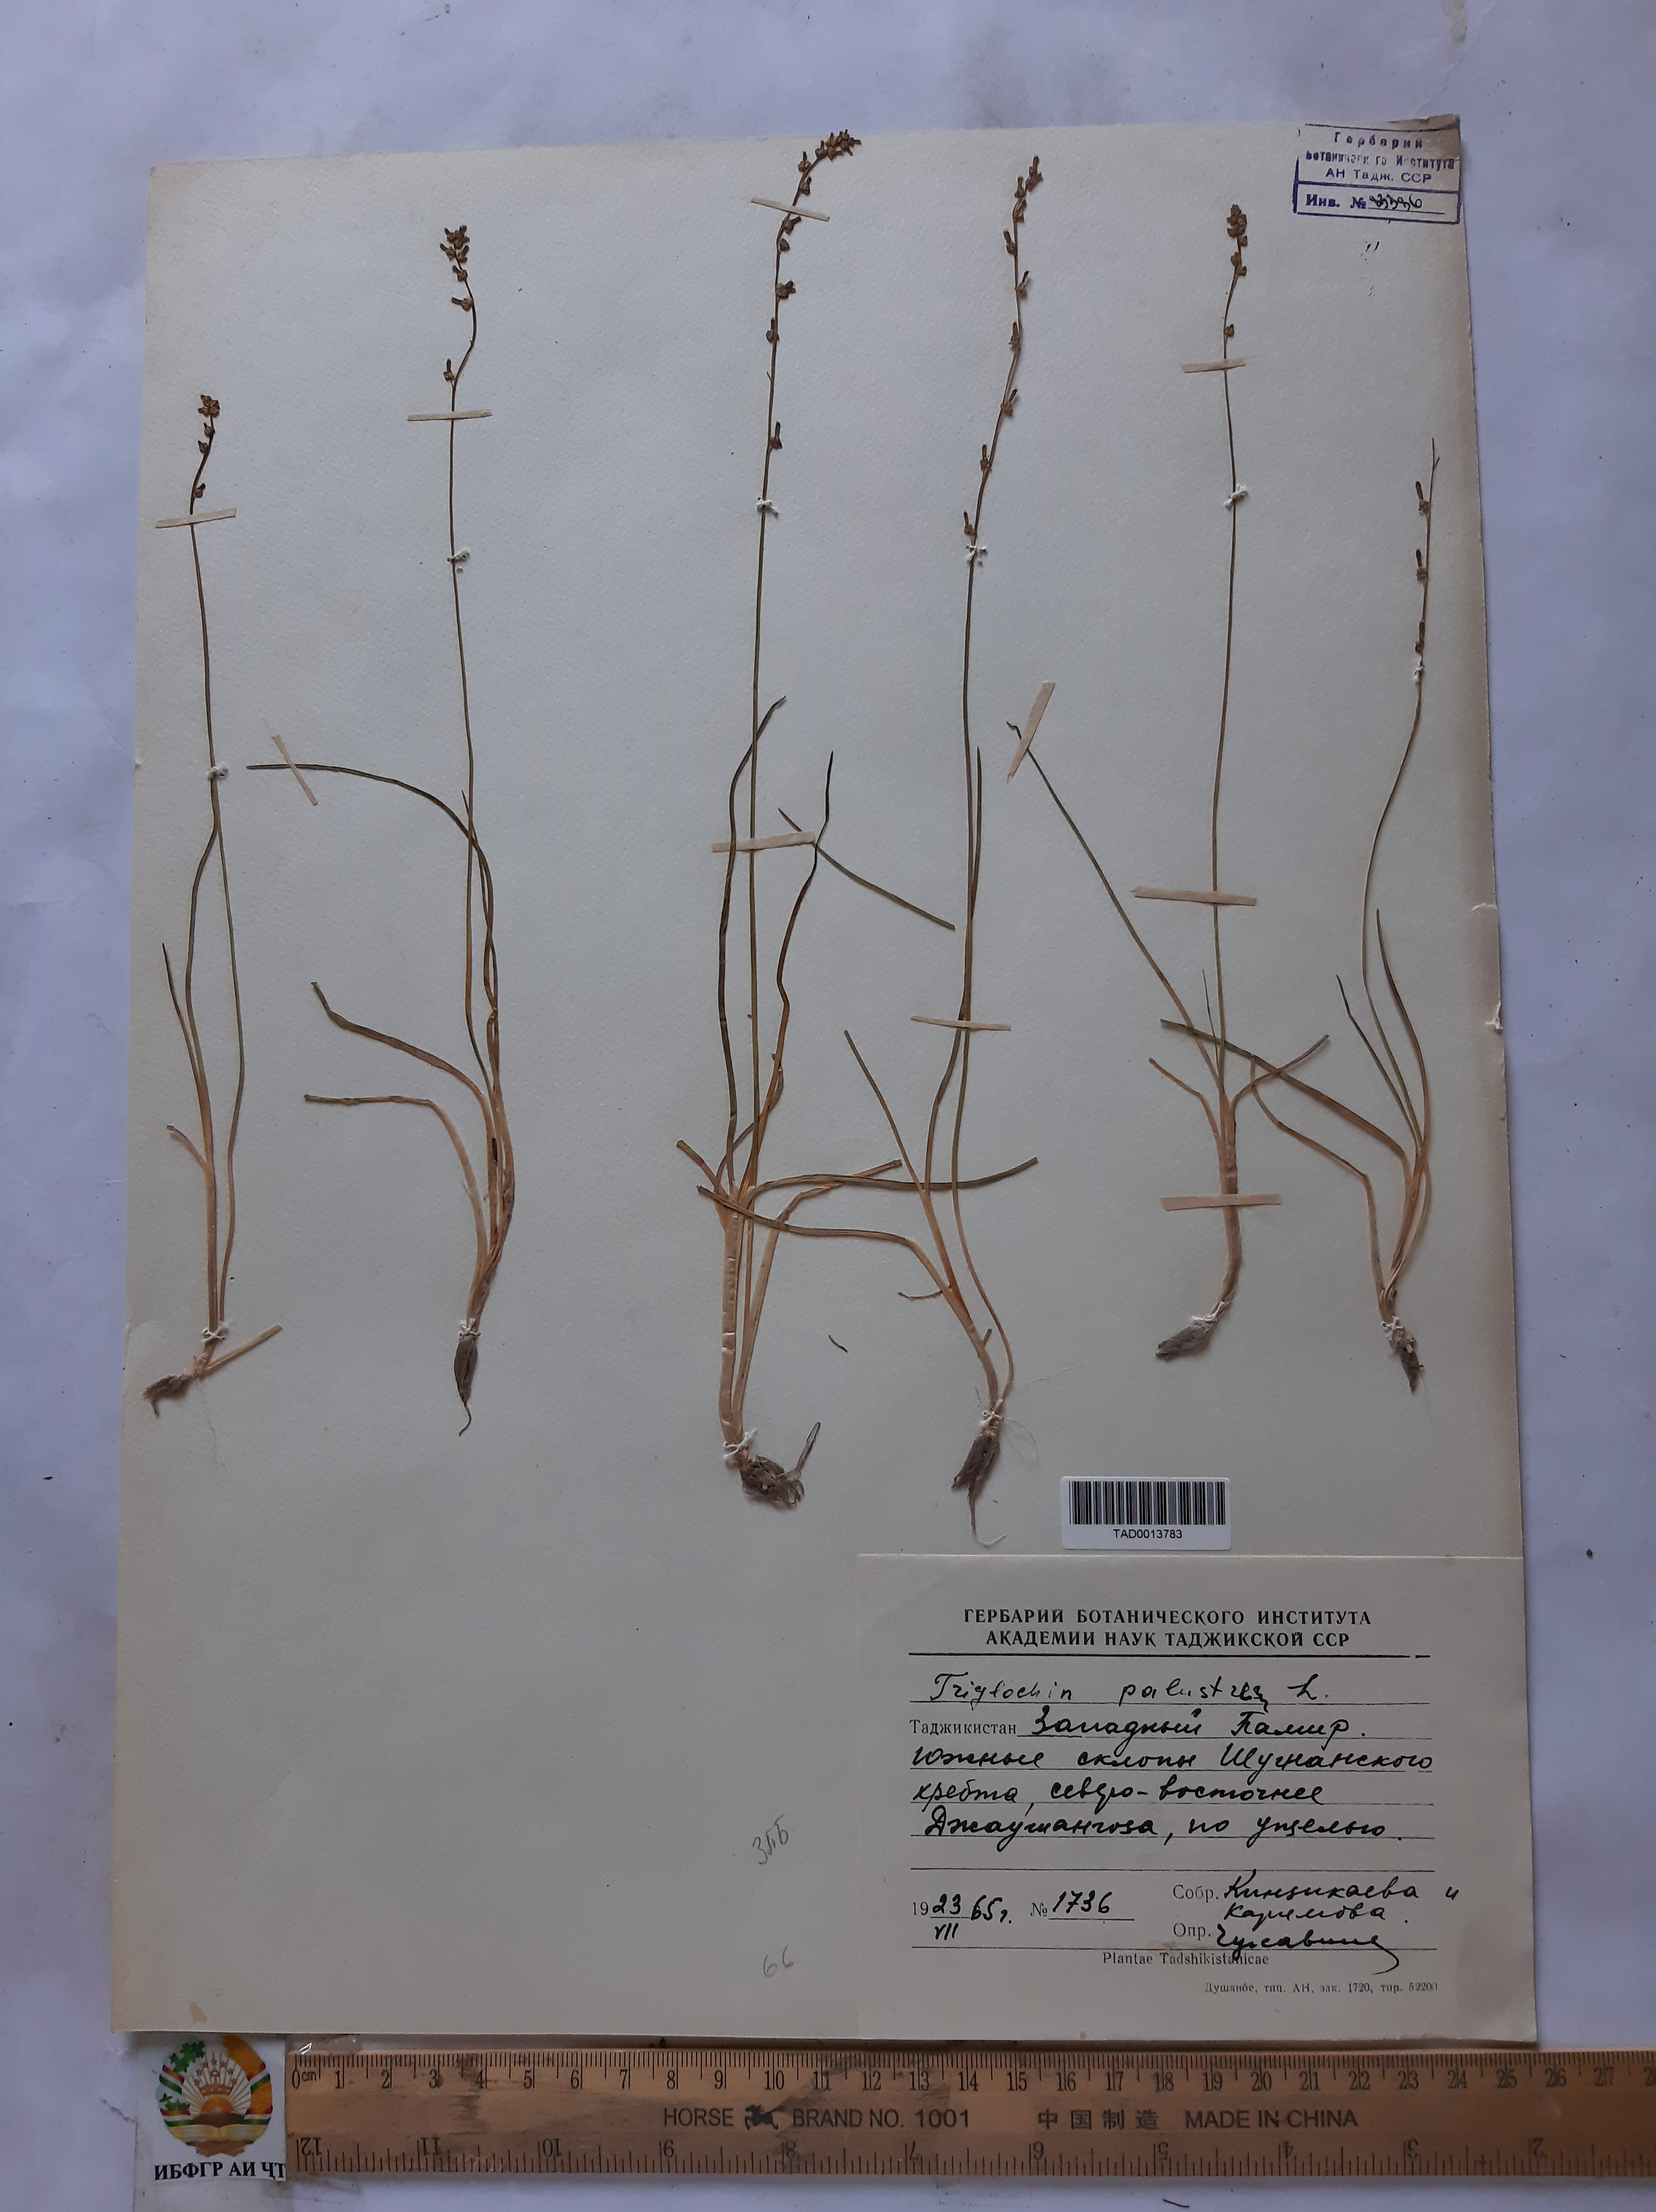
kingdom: Plantae
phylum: Tracheophyta
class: Liliopsida
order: Alismatales
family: Juncaginaceae
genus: Triglochin
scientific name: Triglochin palustris
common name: Marsh arrowgrass
